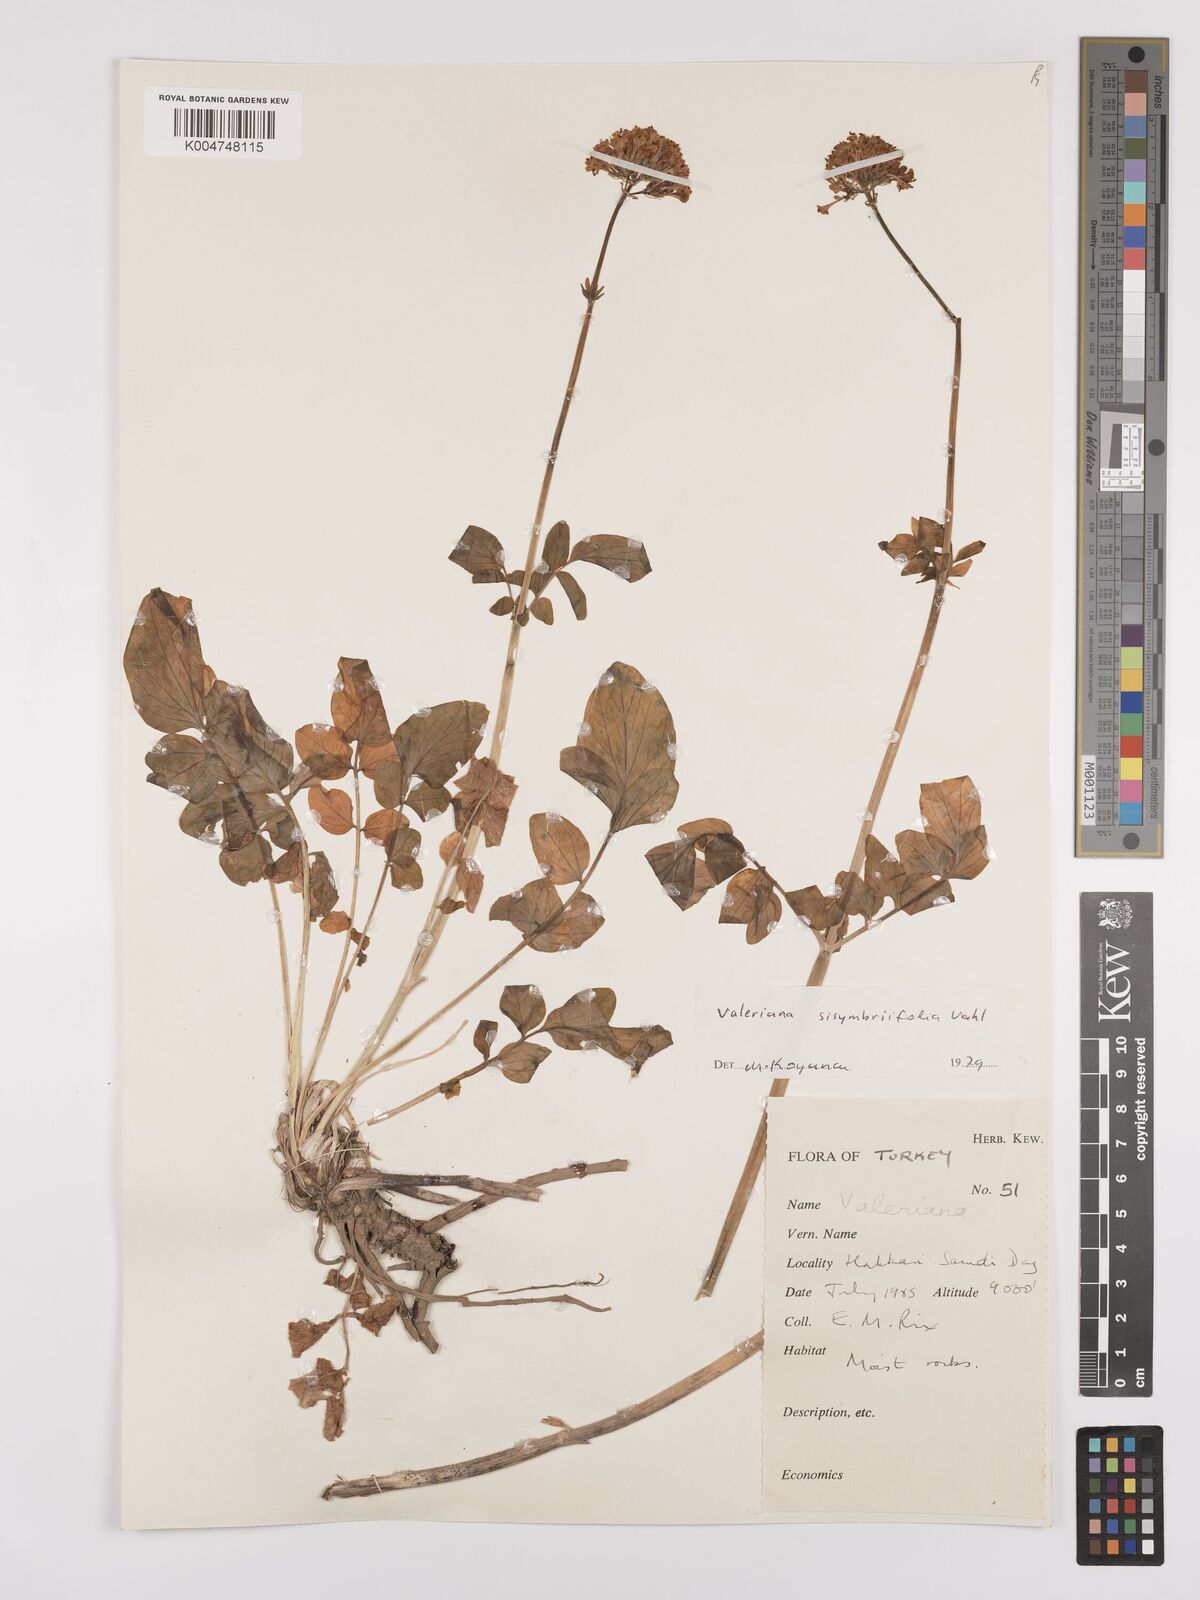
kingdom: Plantae
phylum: Tracheophyta
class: Magnoliopsida
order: Dipsacales
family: Caprifoliaceae
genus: Valeriana
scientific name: Valeriana
